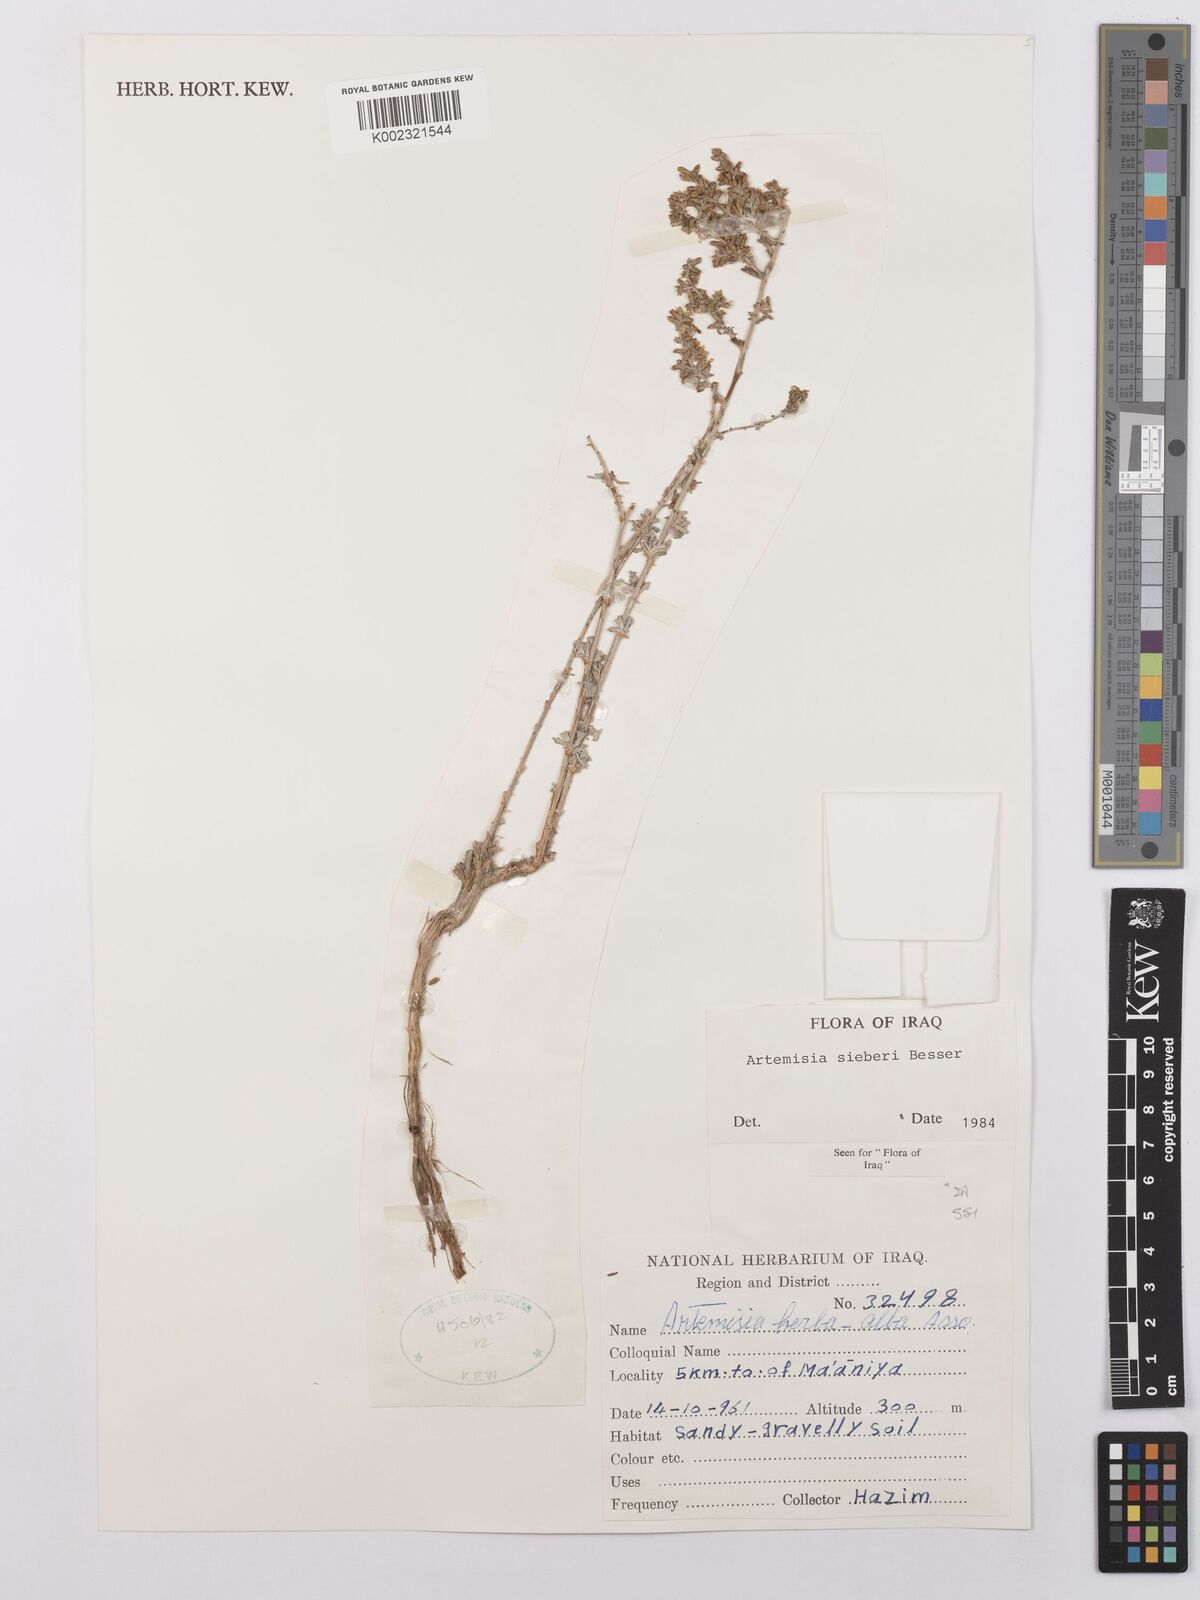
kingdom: Plantae
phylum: Tracheophyta
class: Magnoliopsida
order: Asterales
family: Asteraceae
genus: Artemisia
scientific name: Artemisia sieberi
